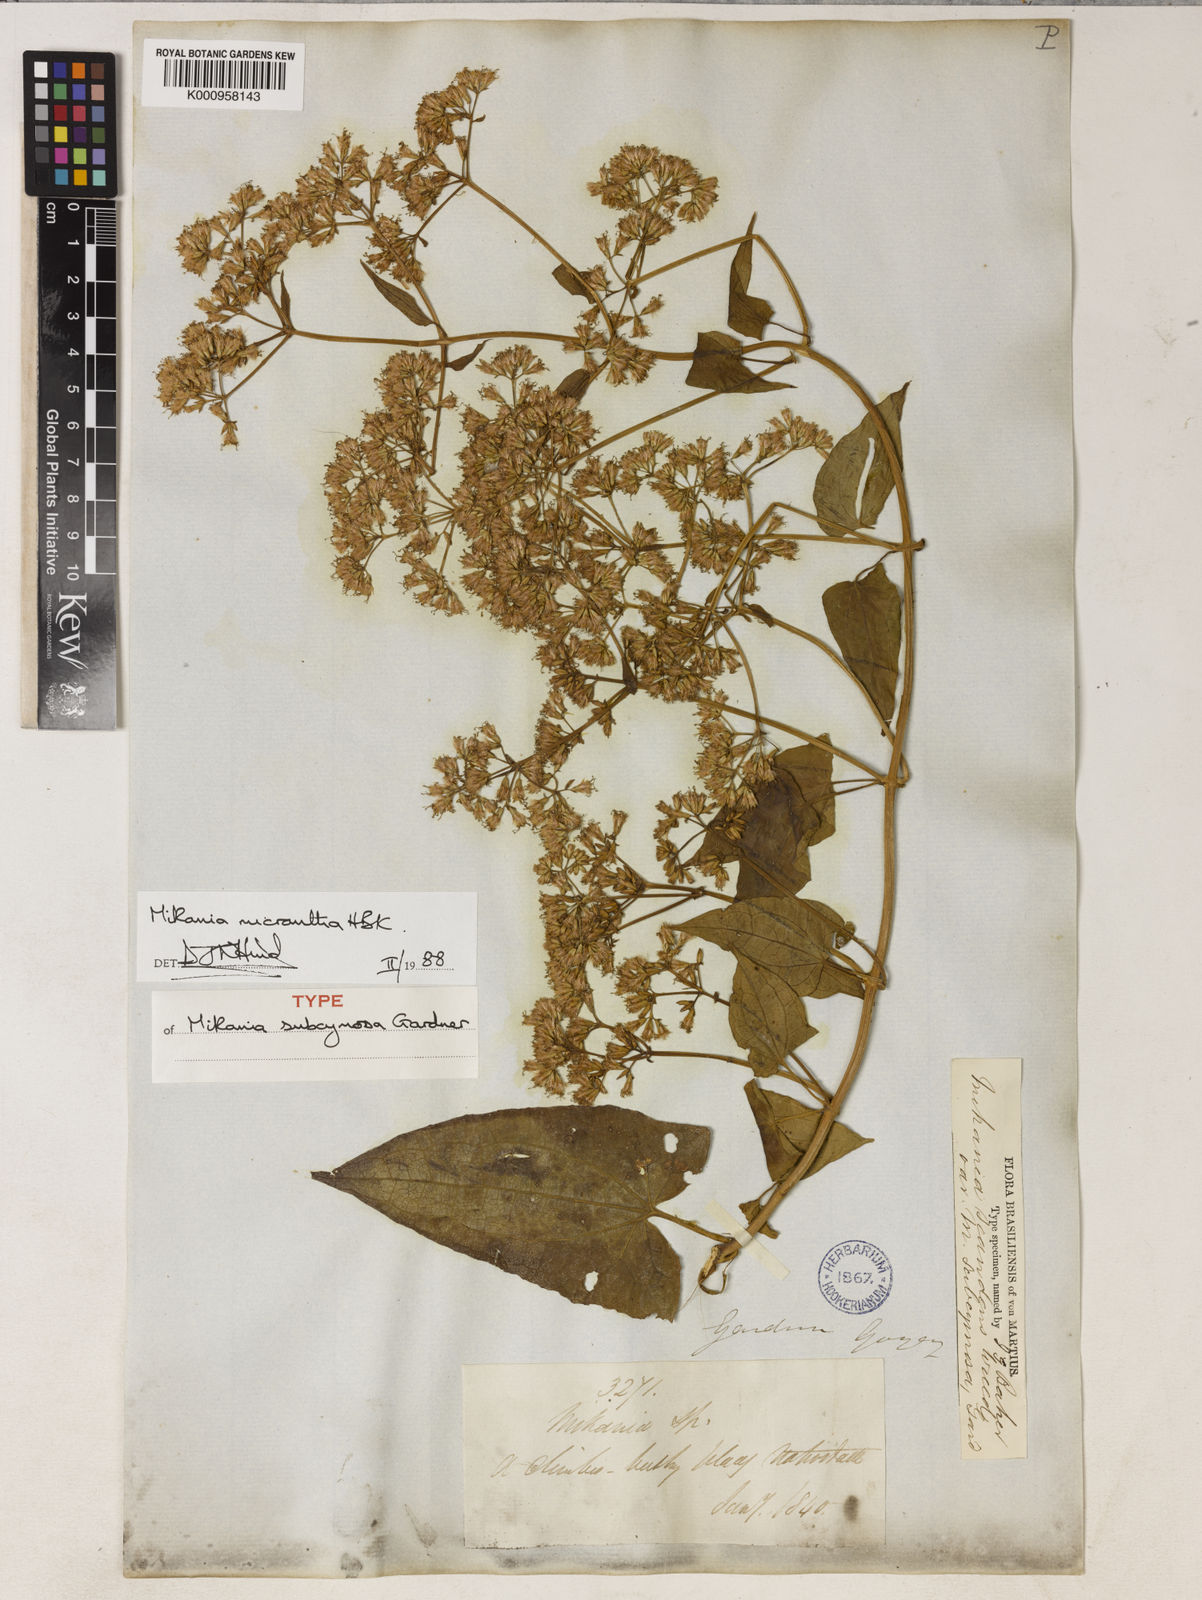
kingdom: Plantae
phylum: Tracheophyta
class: Magnoliopsida
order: Asterales
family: Asteraceae
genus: Mikania
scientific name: Mikania micrantha
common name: Mile-a-minute
